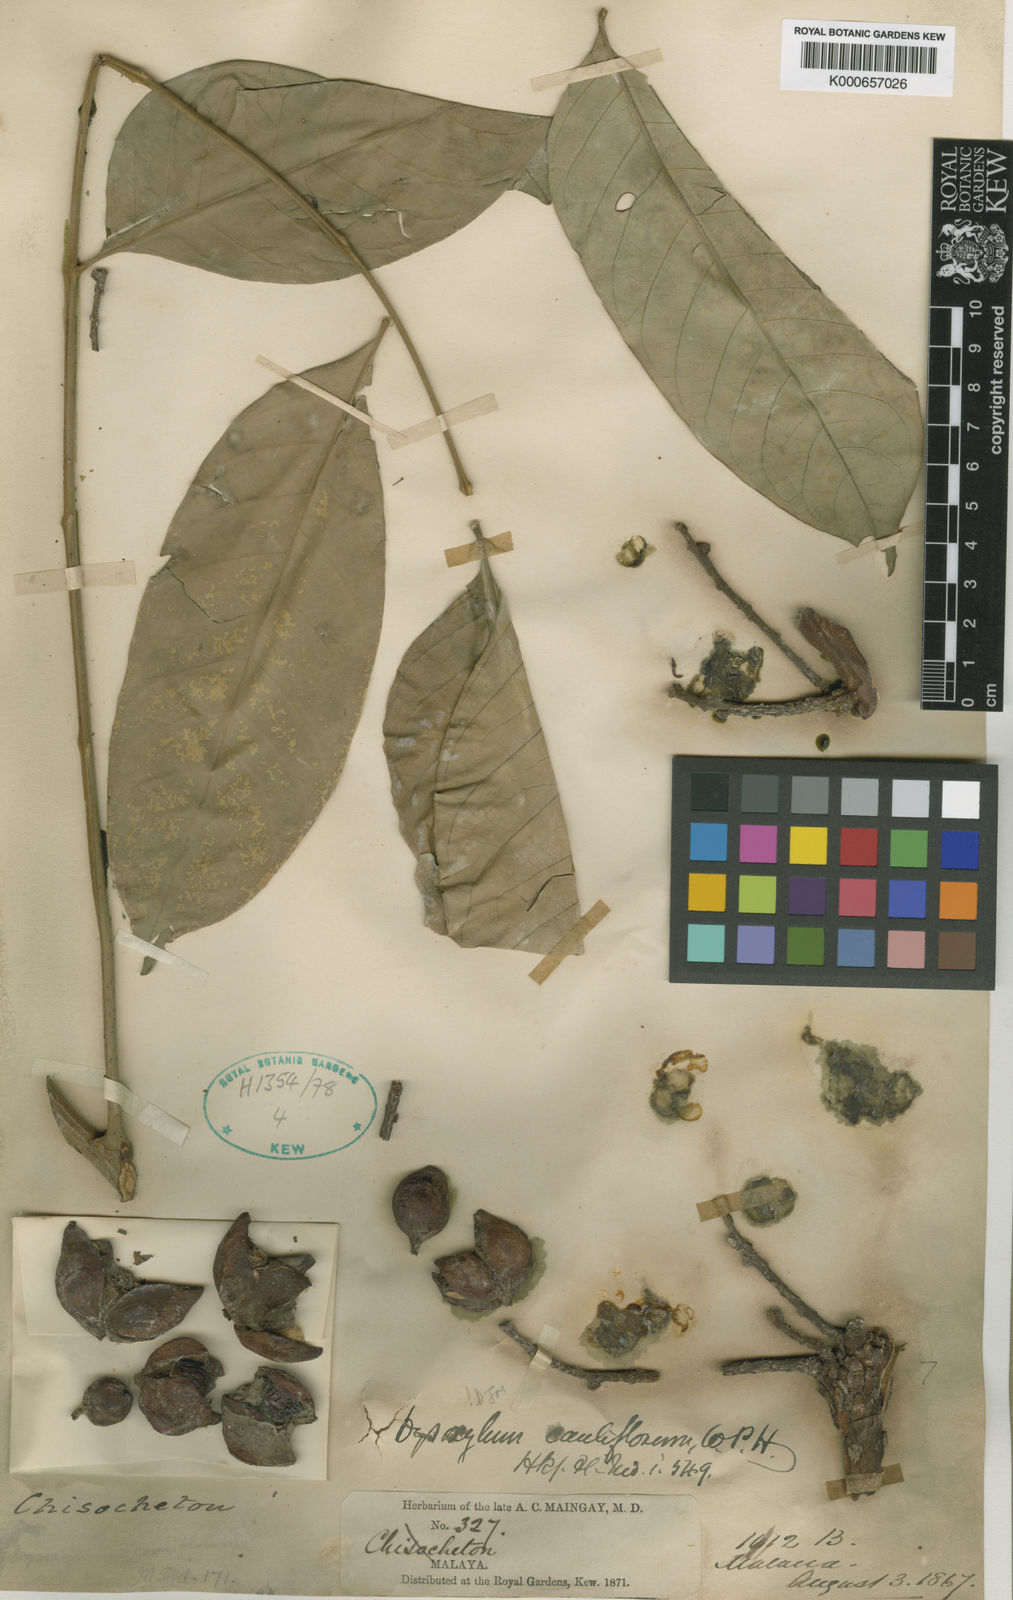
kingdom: Plantae
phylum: Tracheophyta
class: Magnoliopsida
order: Sapindales
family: Meliaceae
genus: Epicharis
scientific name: Epicharis cuneata
